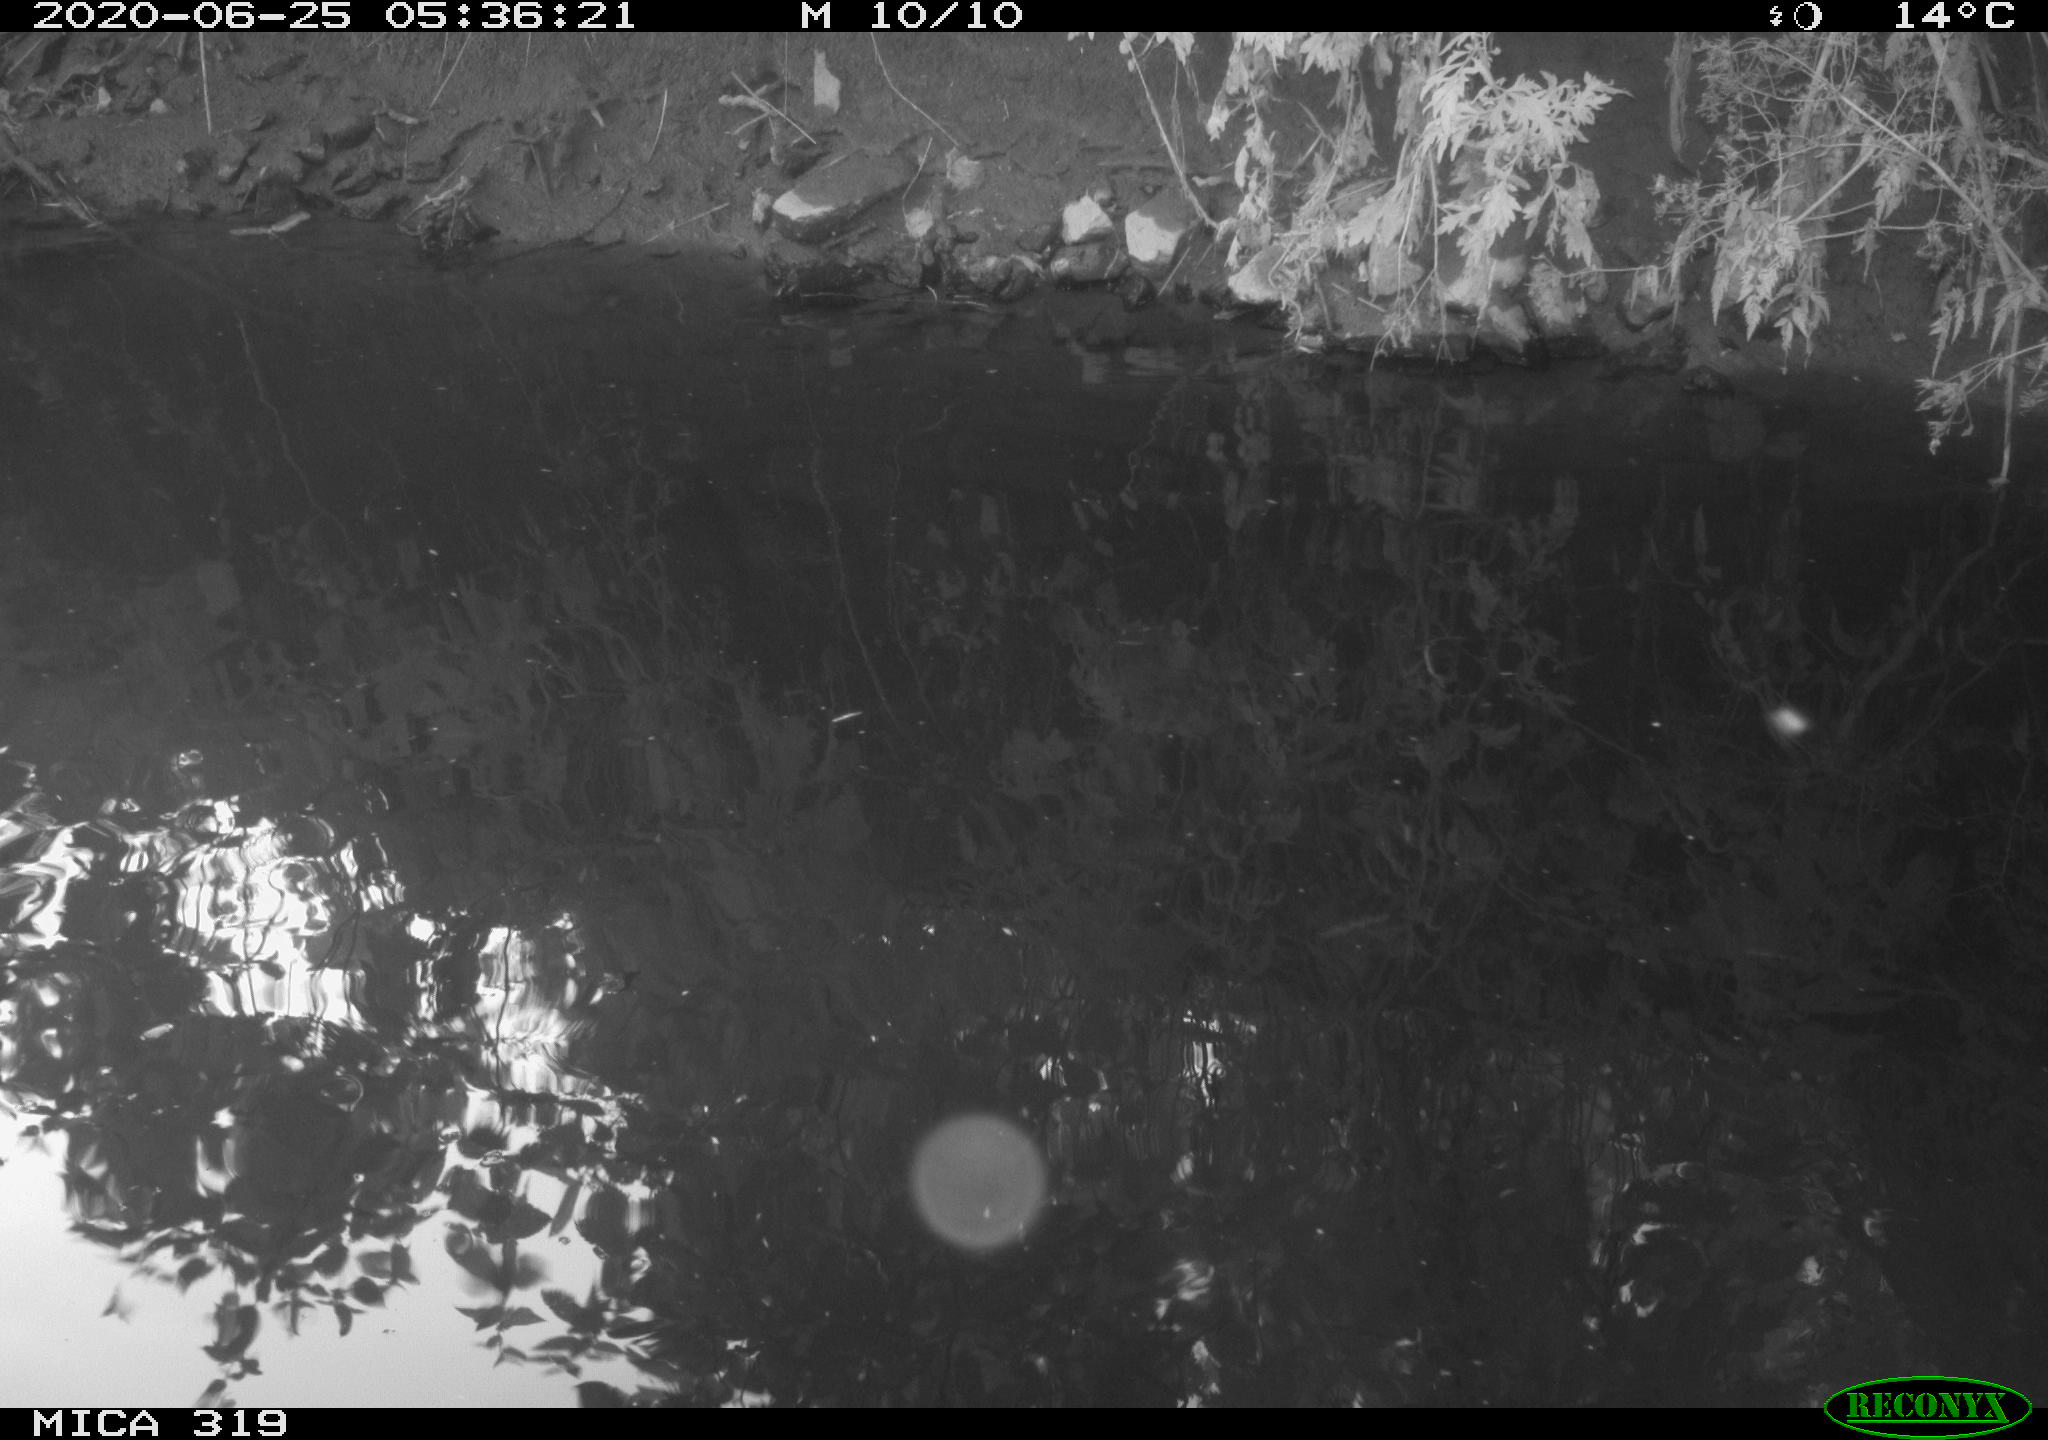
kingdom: Animalia
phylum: Chordata
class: Aves
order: Anseriformes
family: Anatidae
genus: Anas
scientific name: Anas platyrhynchos
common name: Mallard
